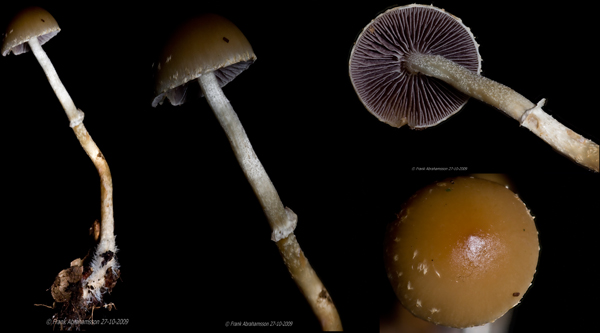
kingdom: Fungi
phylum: Basidiomycota
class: Agaricomycetes
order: Agaricales
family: Strophariaceae
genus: Leratiomyces
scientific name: Leratiomyces squamosus
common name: skællet bredblad
